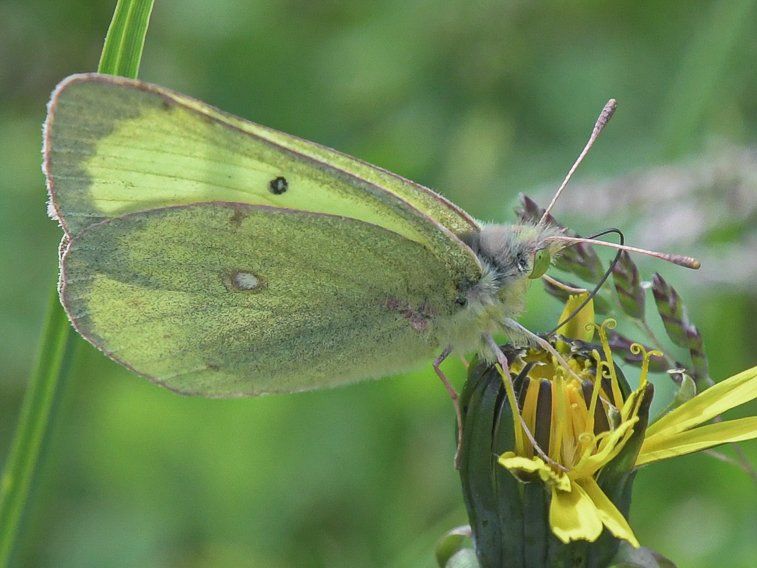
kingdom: Animalia
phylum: Arthropoda
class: Insecta
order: Lepidoptera
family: Pieridae
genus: Colias
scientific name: Colias philodice
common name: Clouded Sulphur
